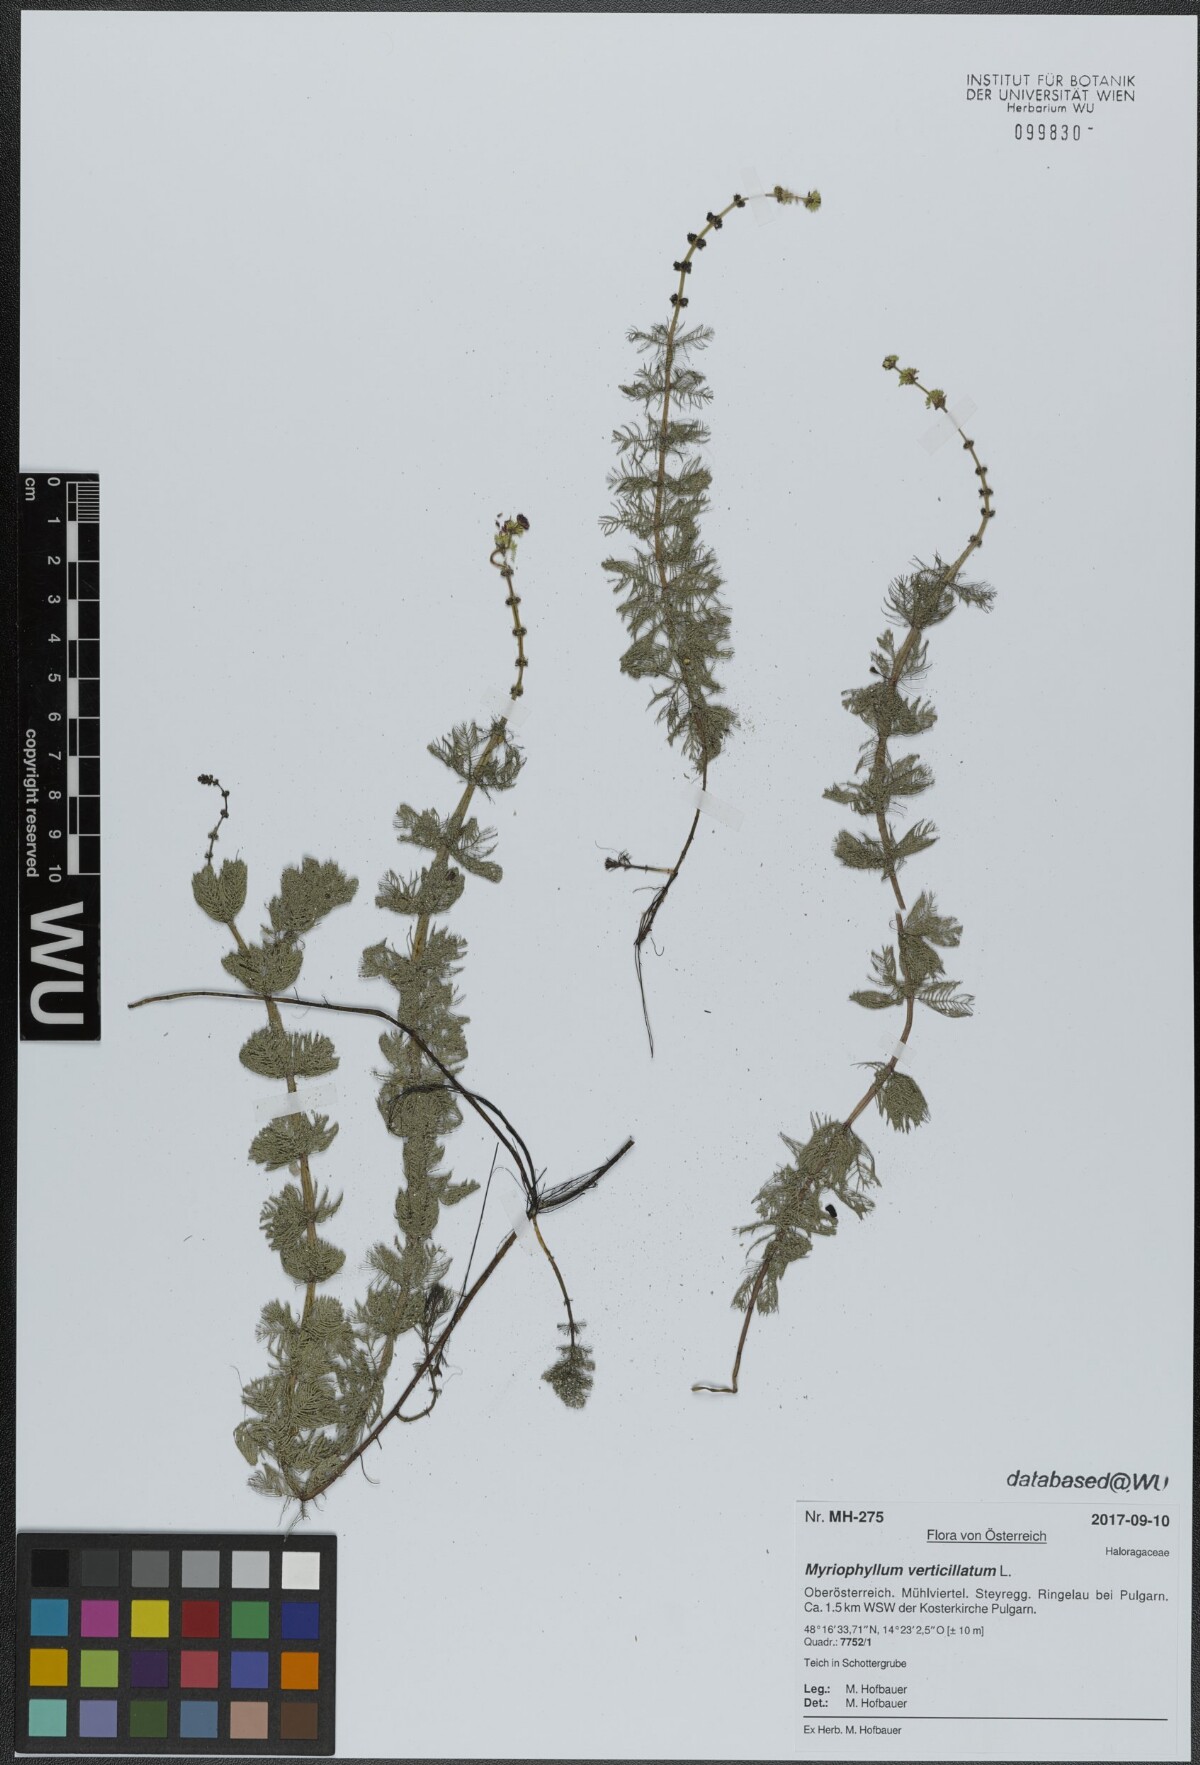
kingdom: Plantae
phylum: Tracheophyta
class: Magnoliopsida
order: Saxifragales
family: Haloragaceae
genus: Myriophyllum
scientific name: Myriophyllum verticillatum
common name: Whorled water-milfoil
